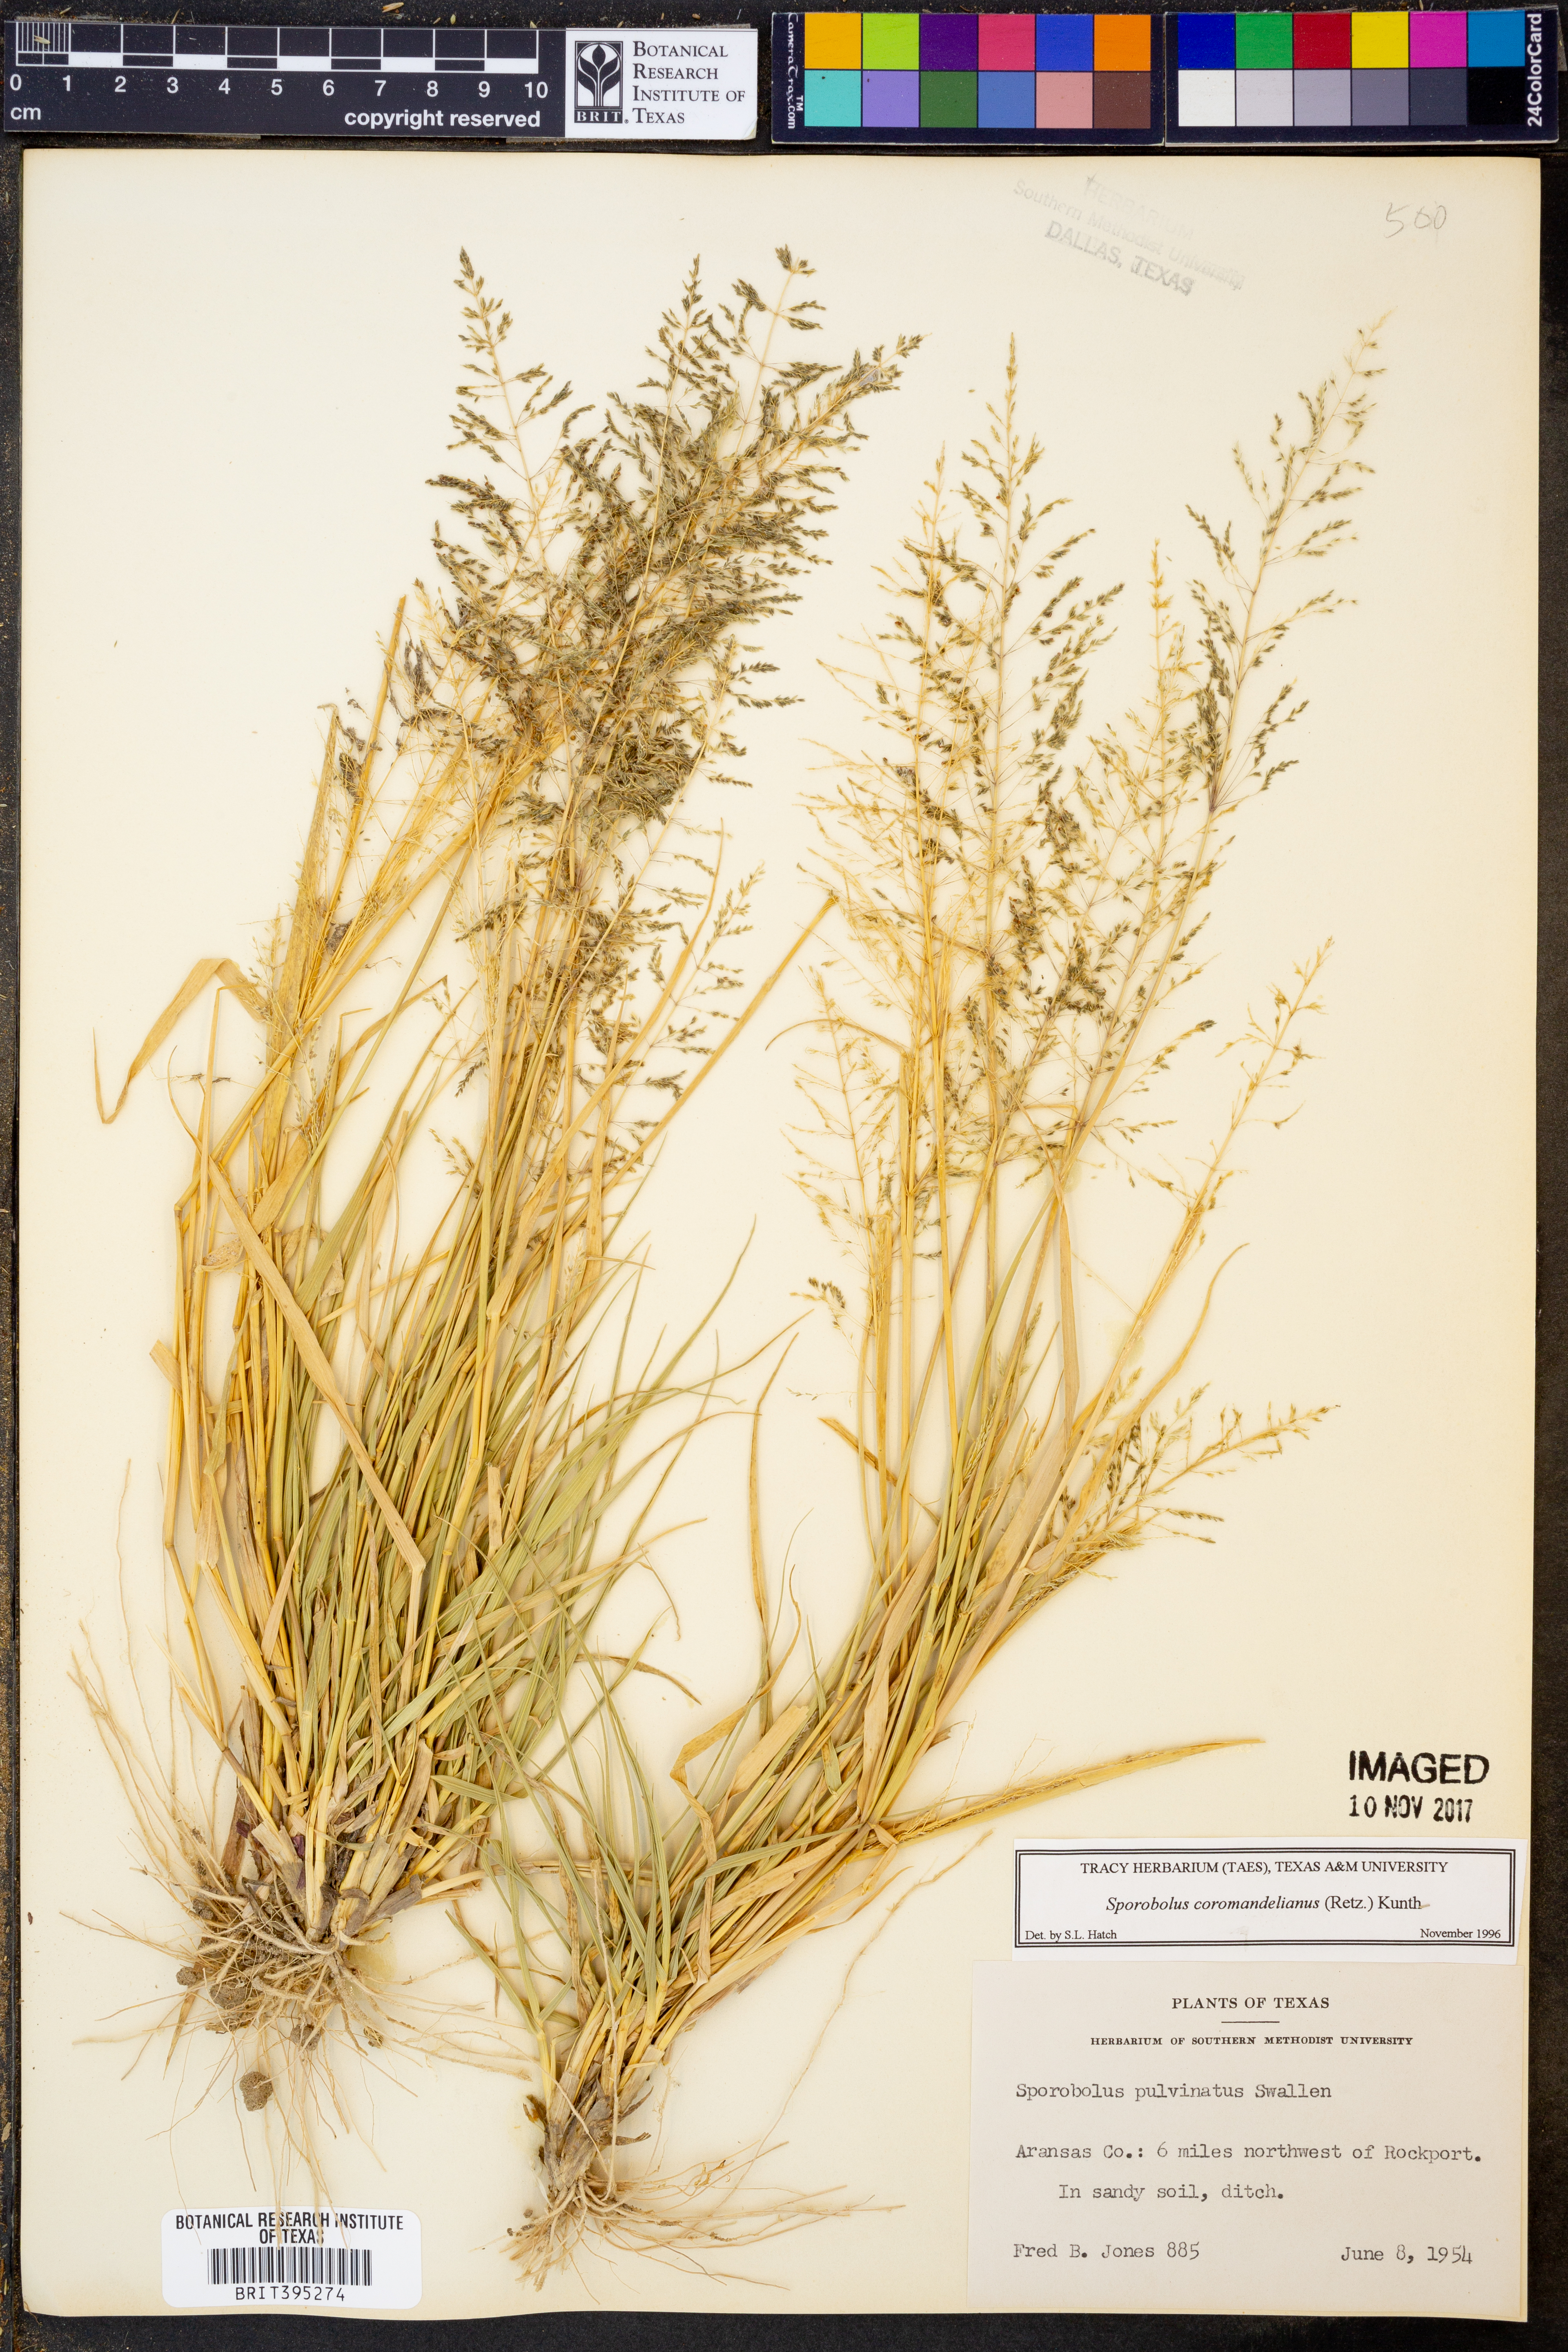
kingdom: Plantae
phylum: Tracheophyta
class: Liliopsida
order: Poales
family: Poaceae
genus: Sporobolus
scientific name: Sporobolus coromandelianus
